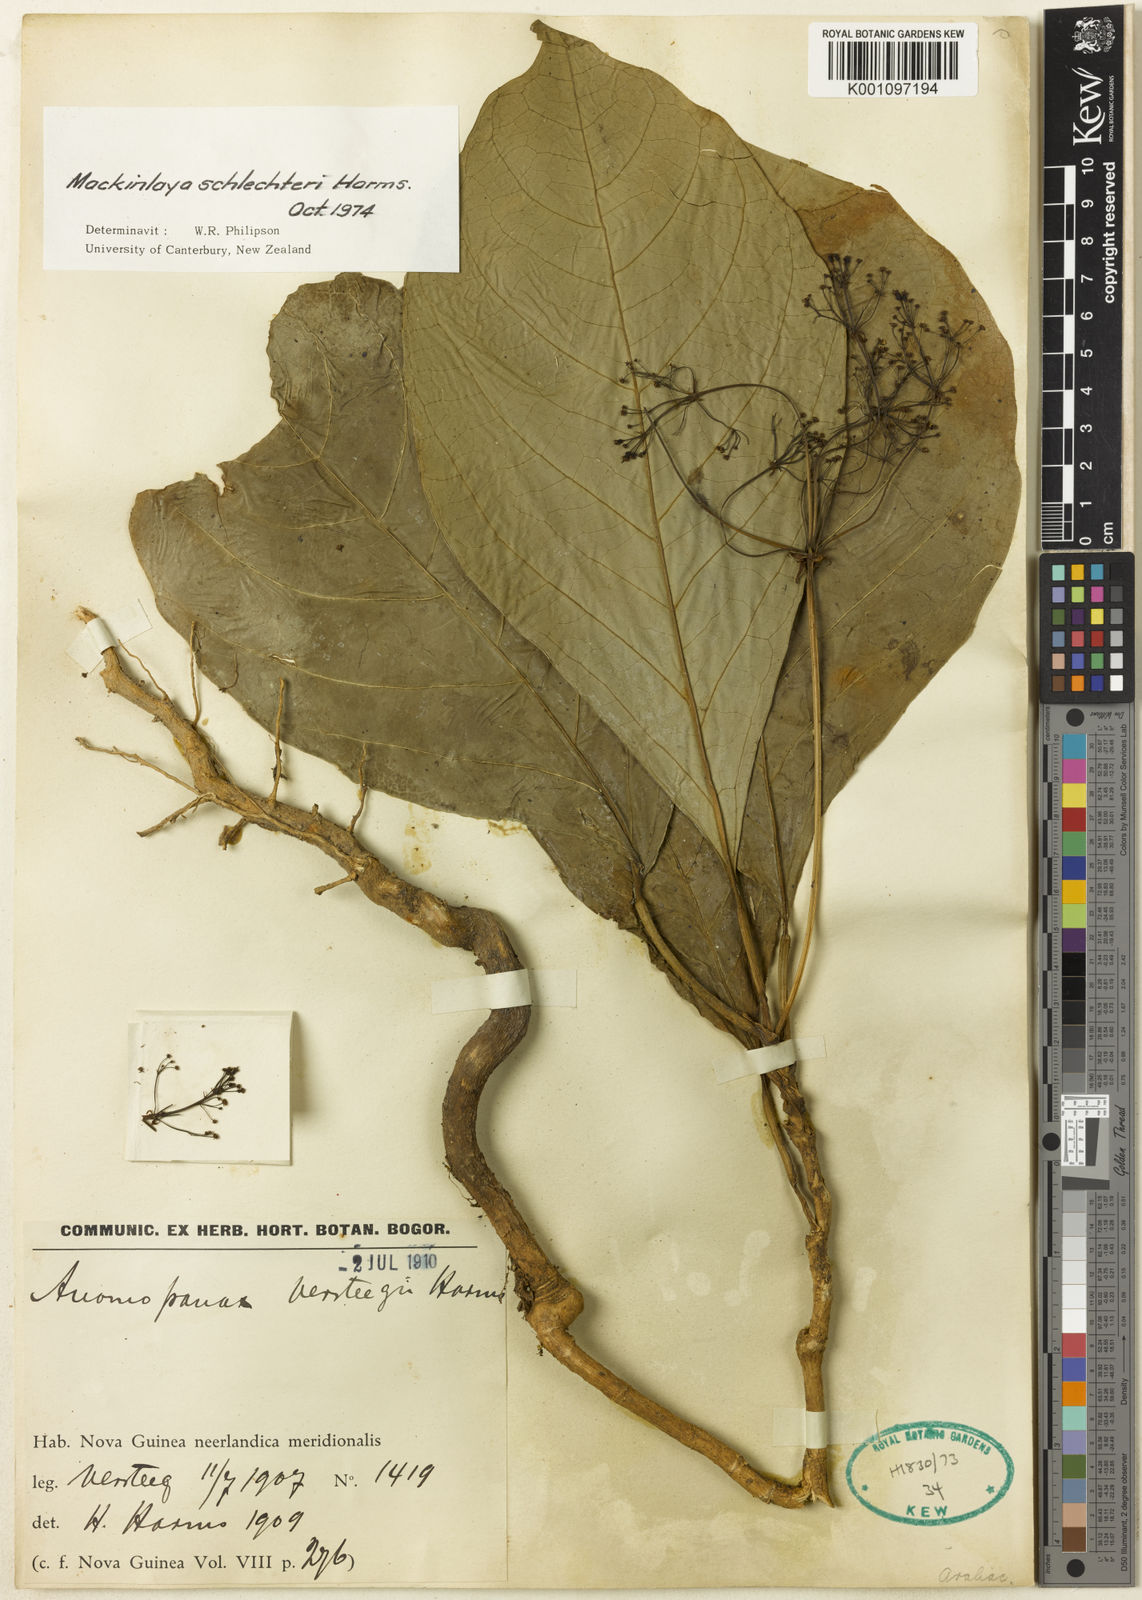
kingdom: Plantae
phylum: Tracheophyta
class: Magnoliopsida
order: Apiales
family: Apiaceae
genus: Mackinlaya
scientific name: Mackinlaya schlechteri
